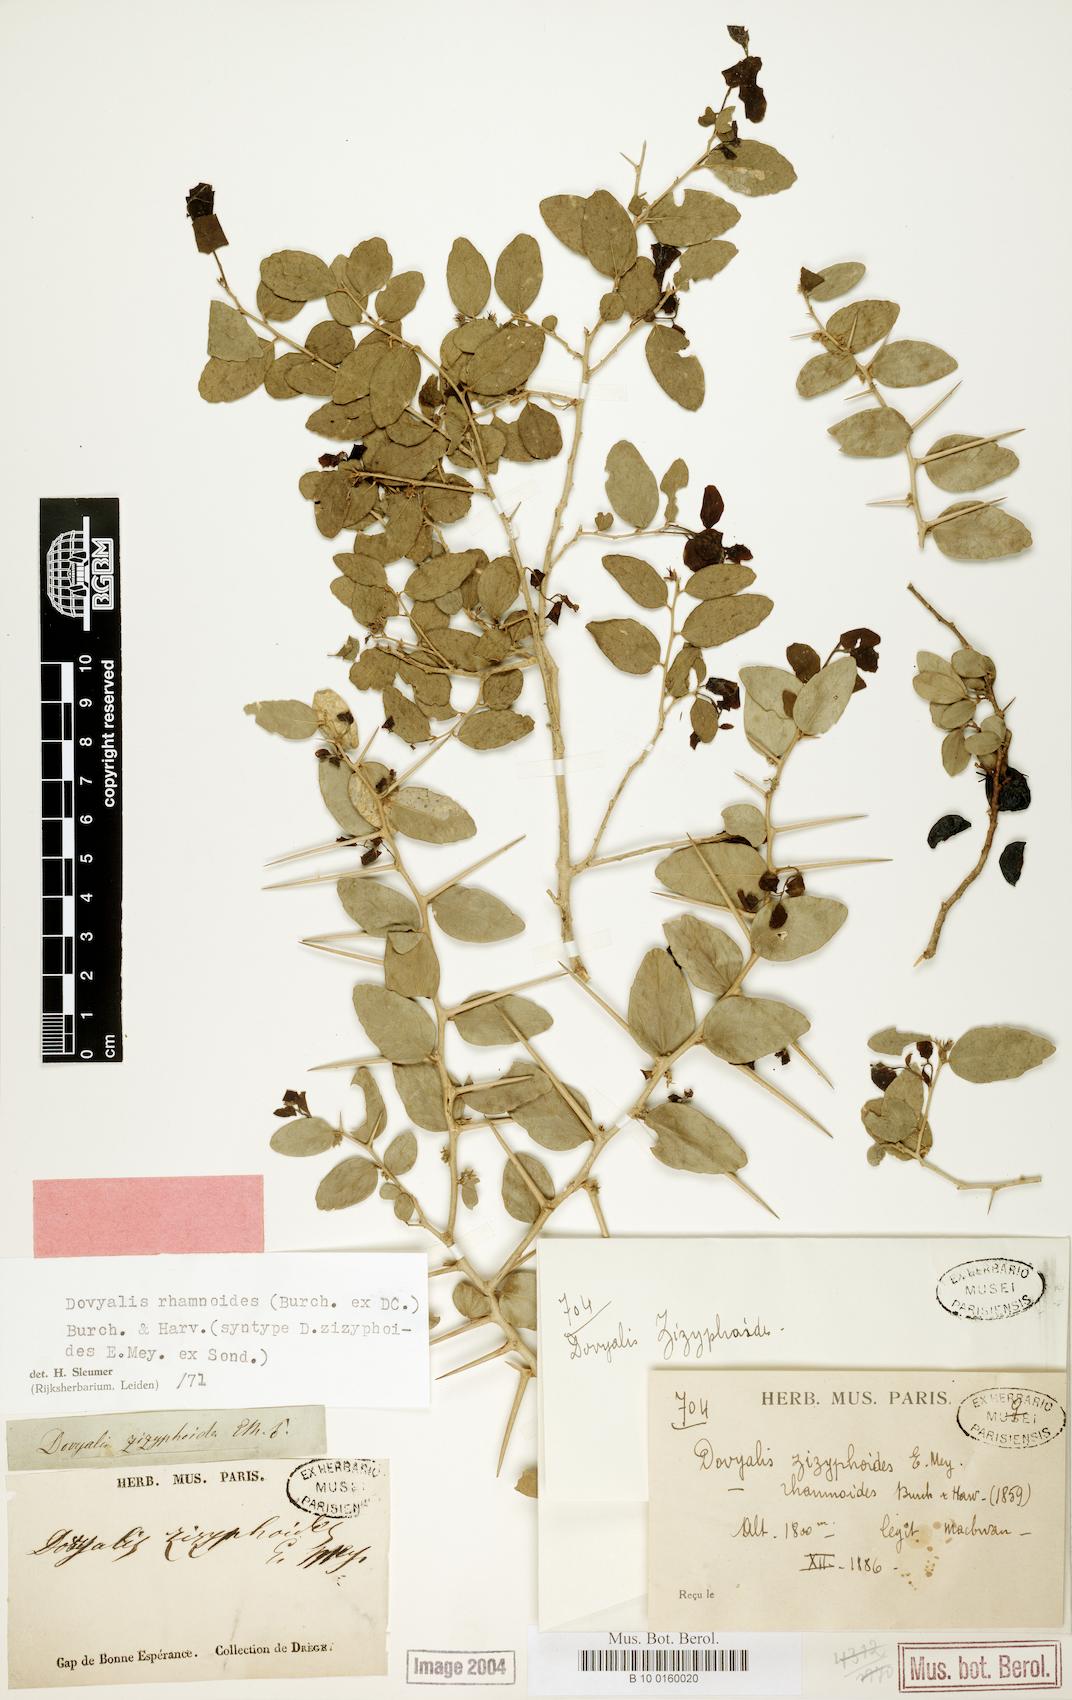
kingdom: Plantae
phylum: Tracheophyta
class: Magnoliopsida
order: Malpighiales
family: Salicaceae
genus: Dovyalis
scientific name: Dovyalis rhamnoides
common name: Sourberry
